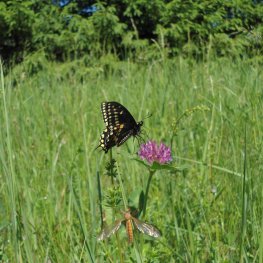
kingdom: Animalia
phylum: Arthropoda
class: Insecta
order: Lepidoptera
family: Papilionidae
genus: Papilio
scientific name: Papilio polyxenes
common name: Black Swallowtail
